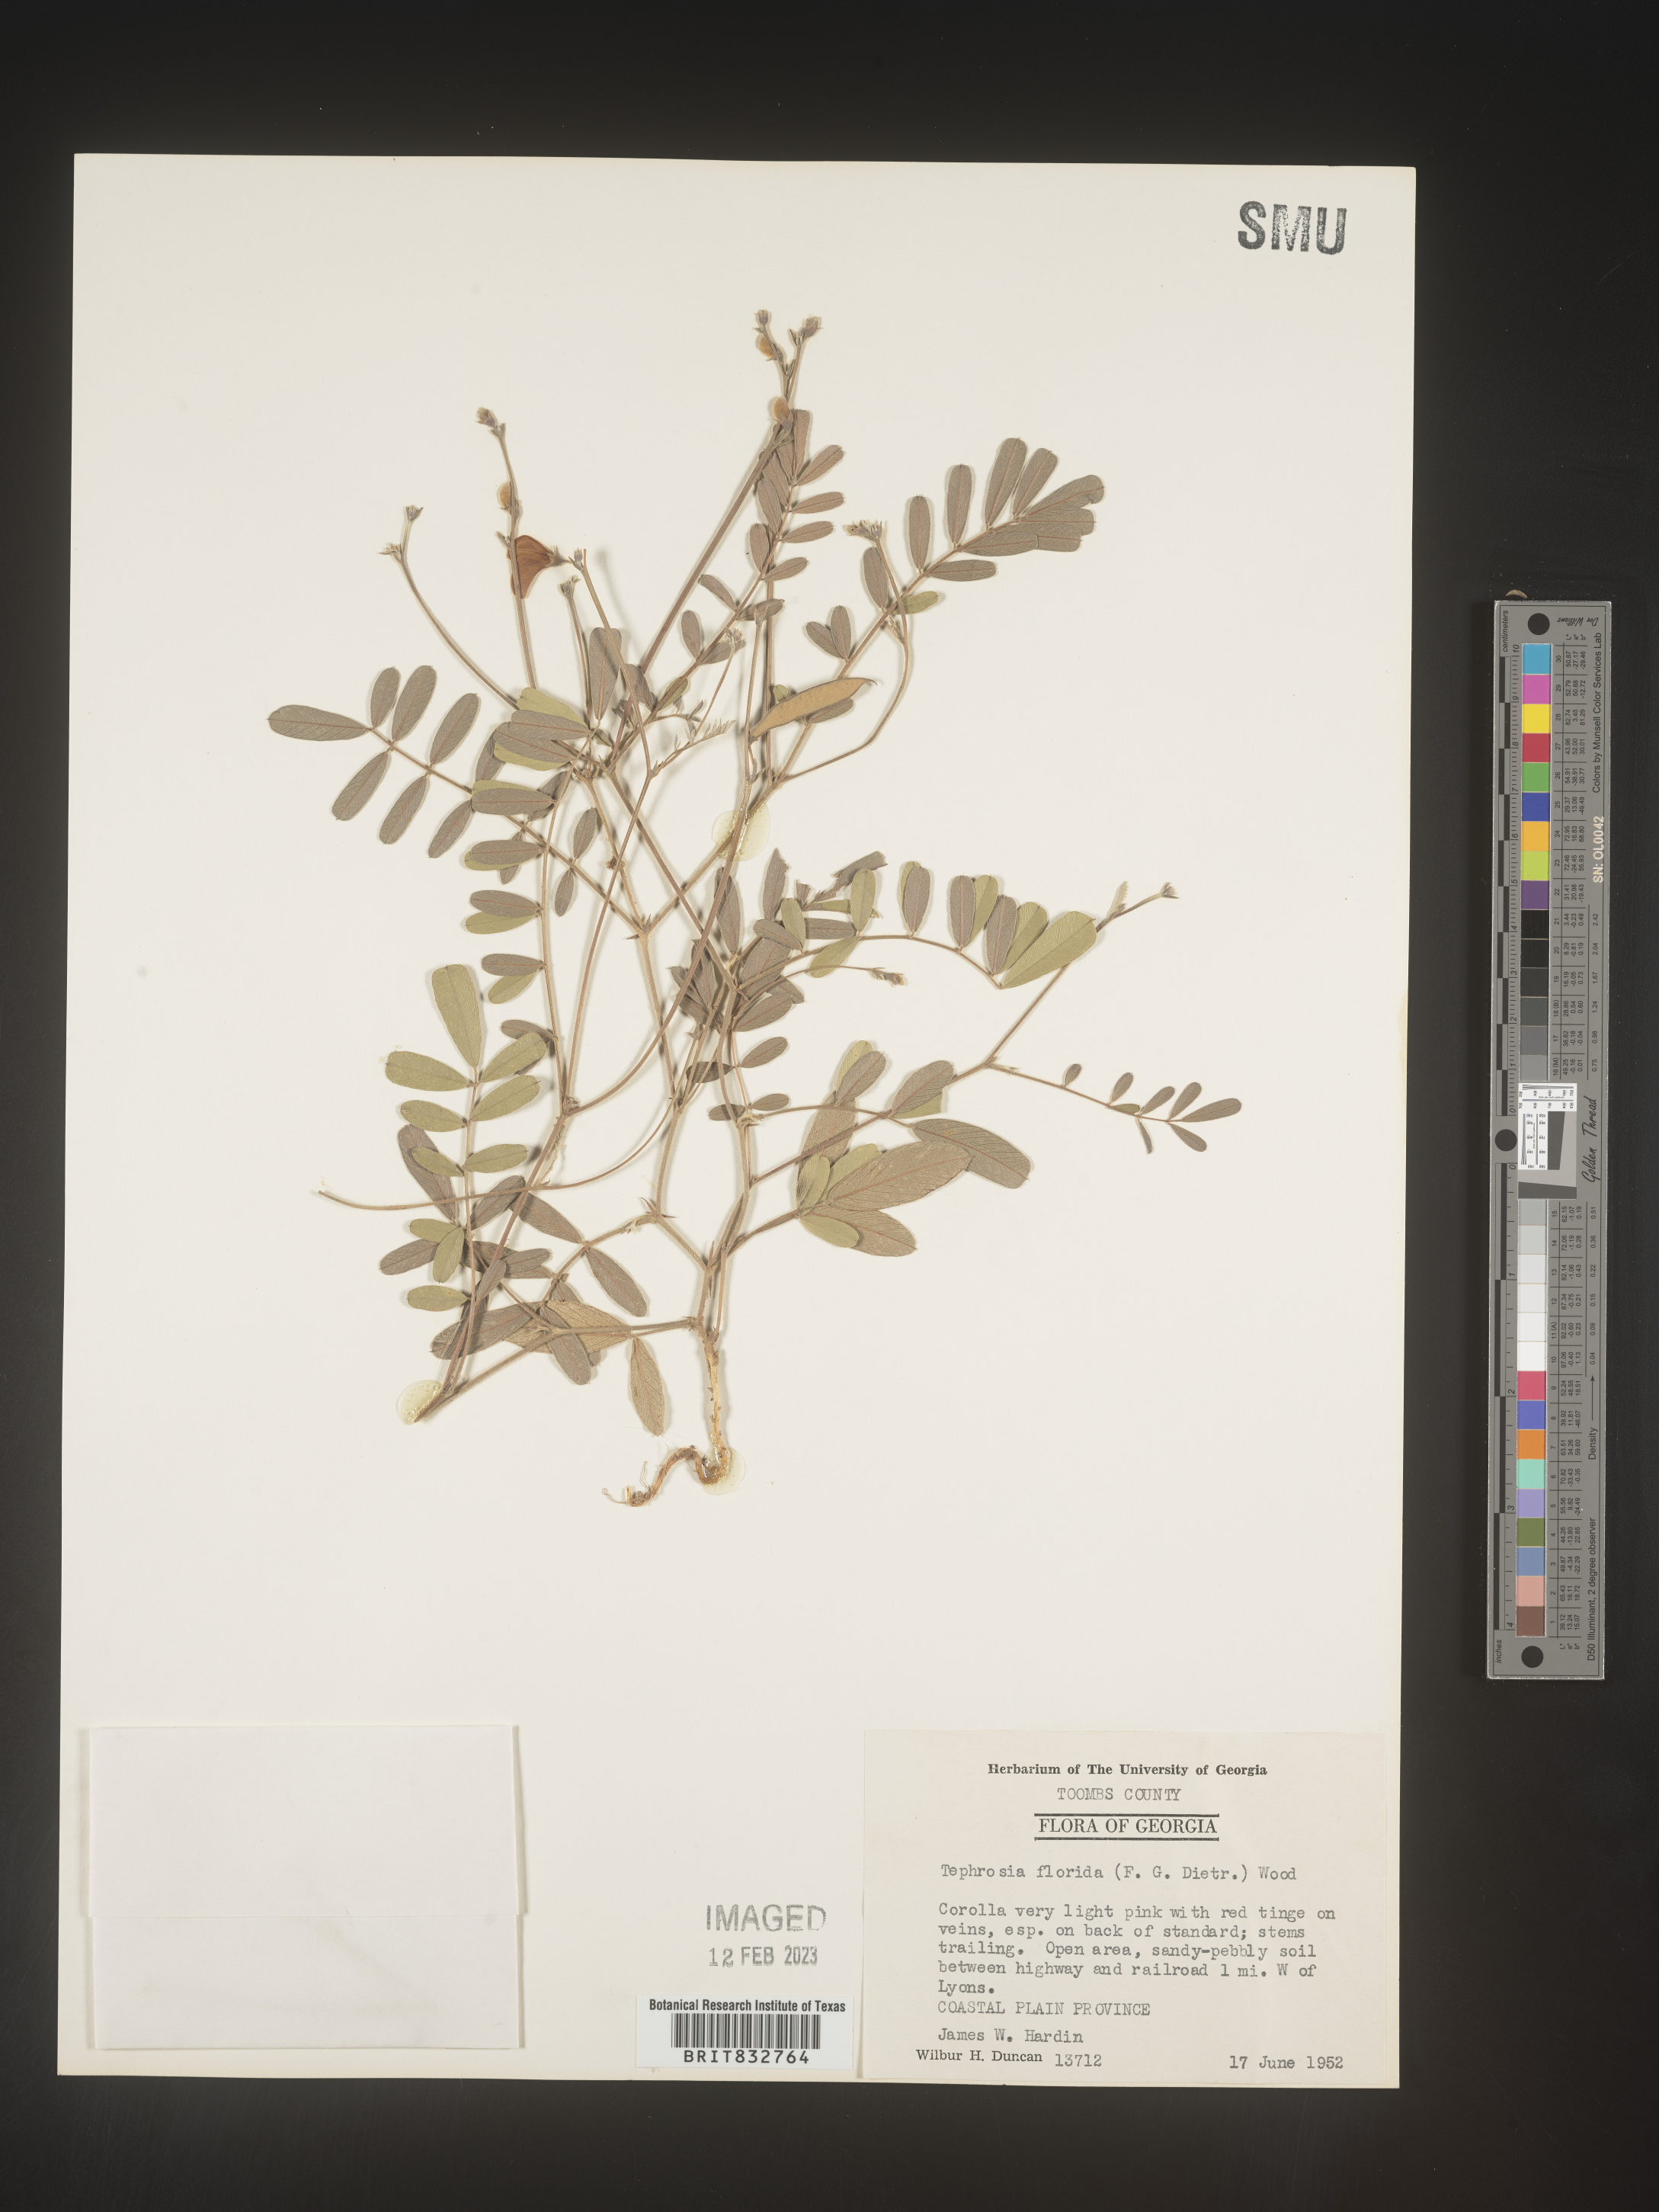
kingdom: Plantae
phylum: Tracheophyta
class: Magnoliopsida
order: Fabales
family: Fabaceae
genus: Tephrosia
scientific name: Tephrosia florida
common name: Florida hoary-pea
